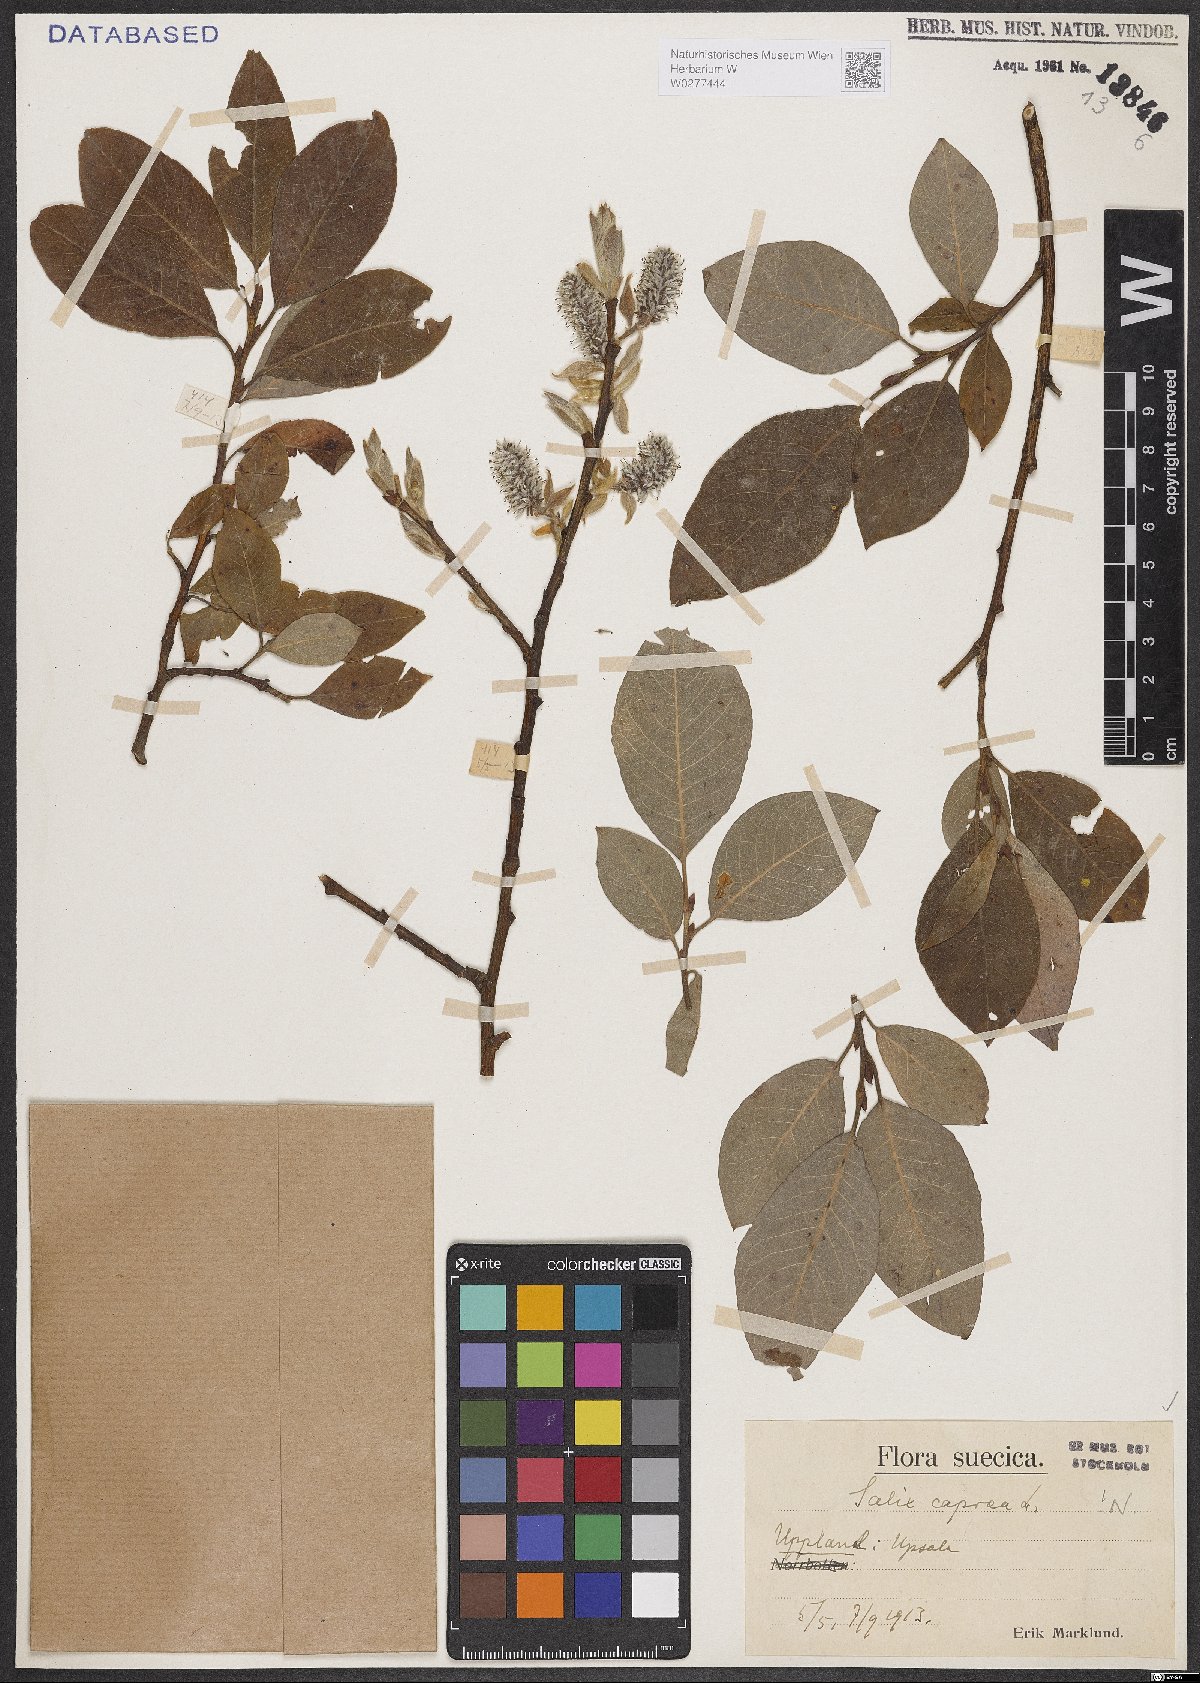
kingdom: Plantae
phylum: Tracheophyta
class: Magnoliopsida
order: Malpighiales
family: Salicaceae
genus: Salix
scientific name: Salix caprea
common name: Goat willow
